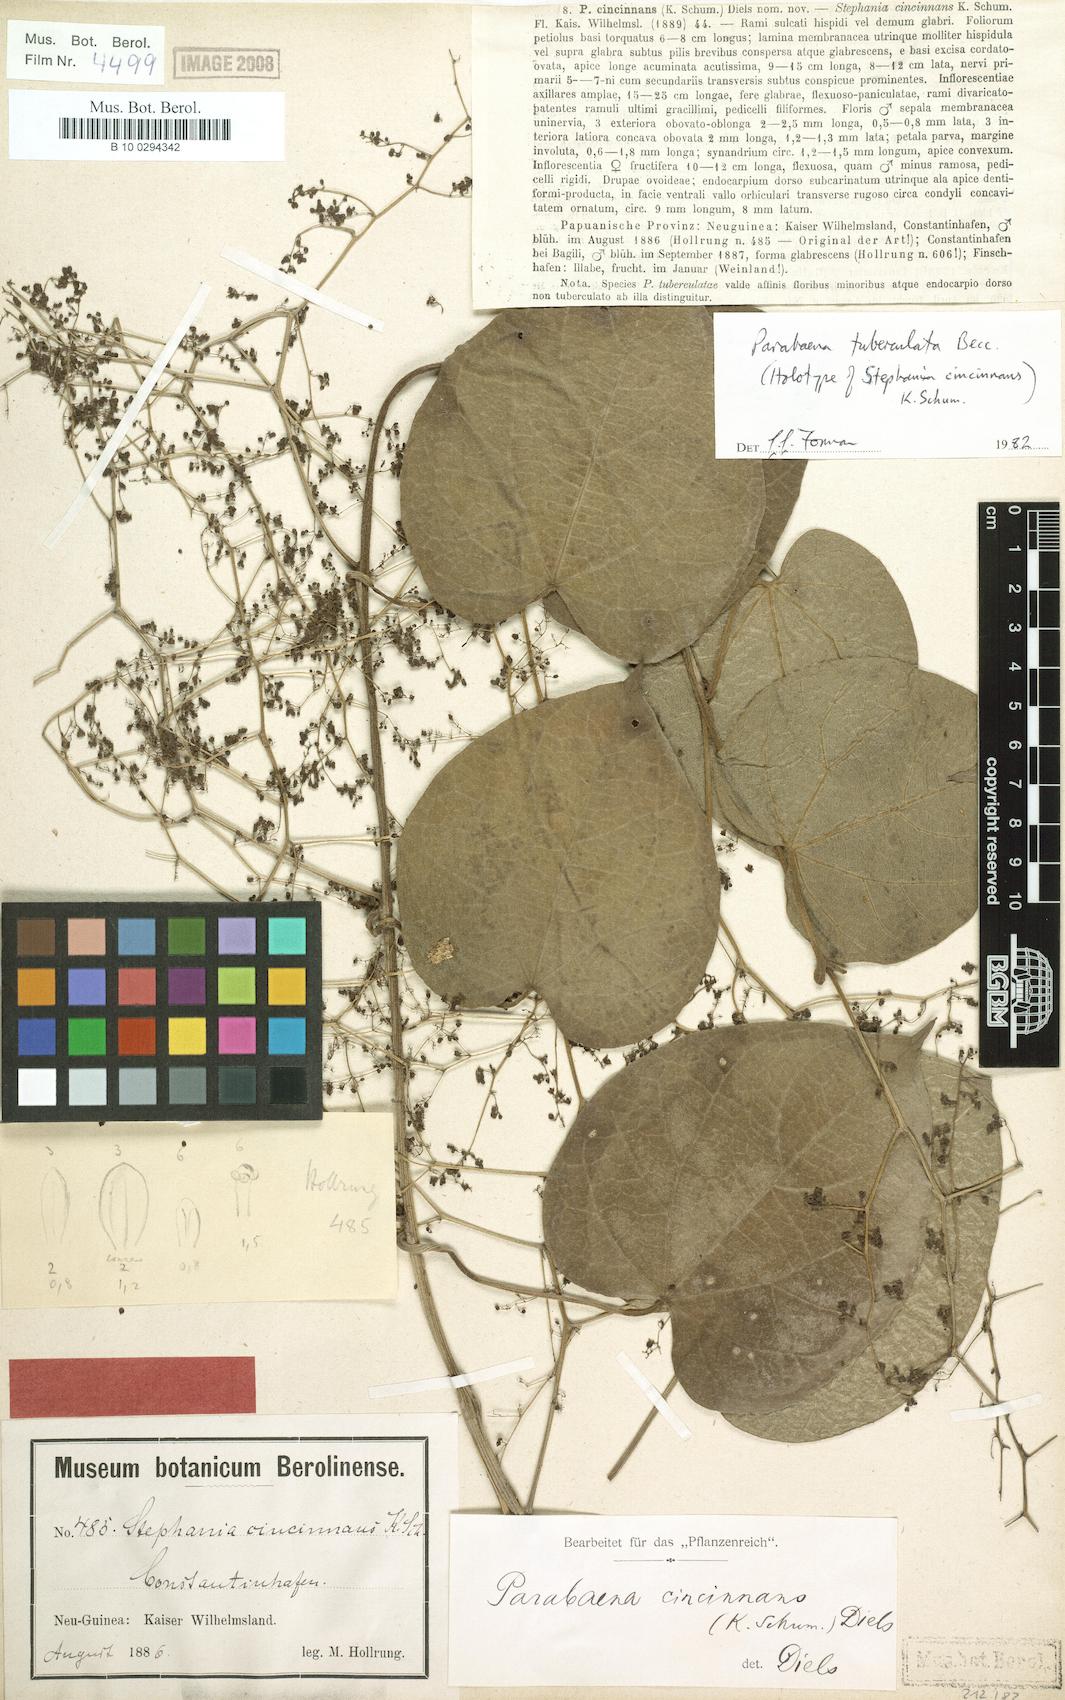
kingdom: Plantae
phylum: Tracheophyta
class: Magnoliopsida
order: Ranunculales
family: Menispermaceae
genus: Parabaena
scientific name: Parabaena tuberculata
